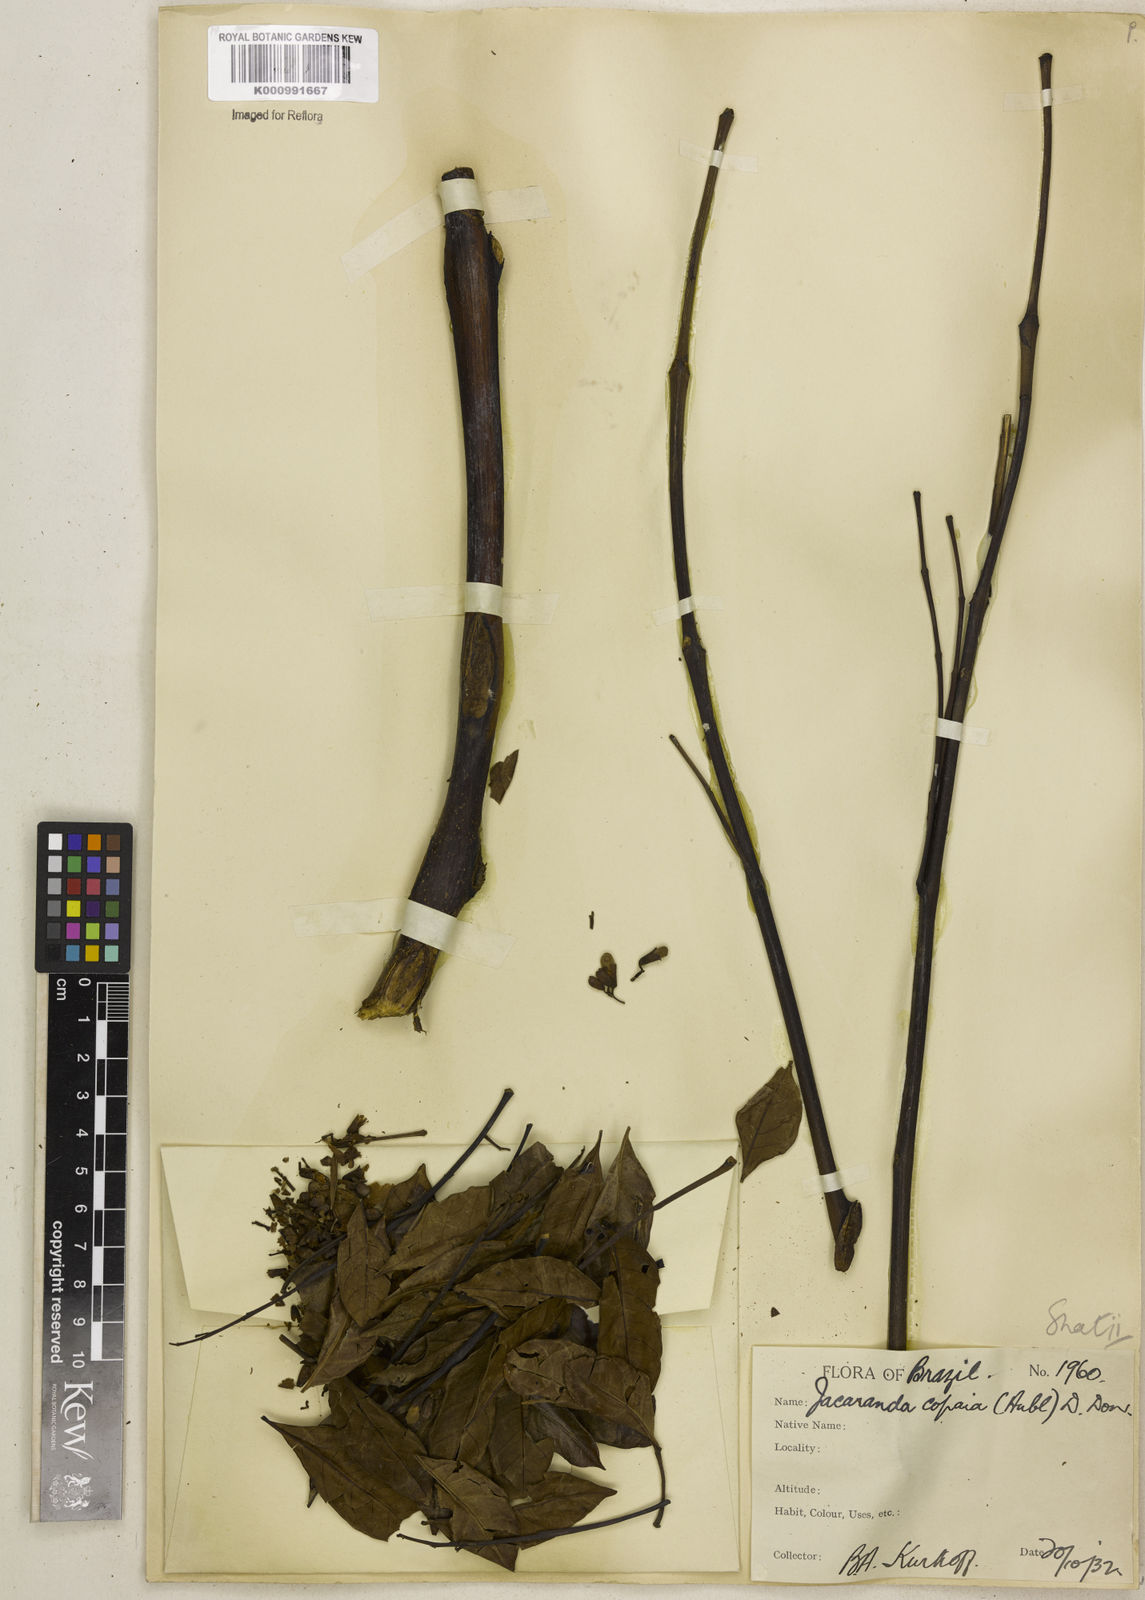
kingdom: Plantae
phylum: Tracheophyta
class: Magnoliopsida
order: Lamiales
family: Bignoniaceae
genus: Jacaranda
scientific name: Jacaranda copaia
